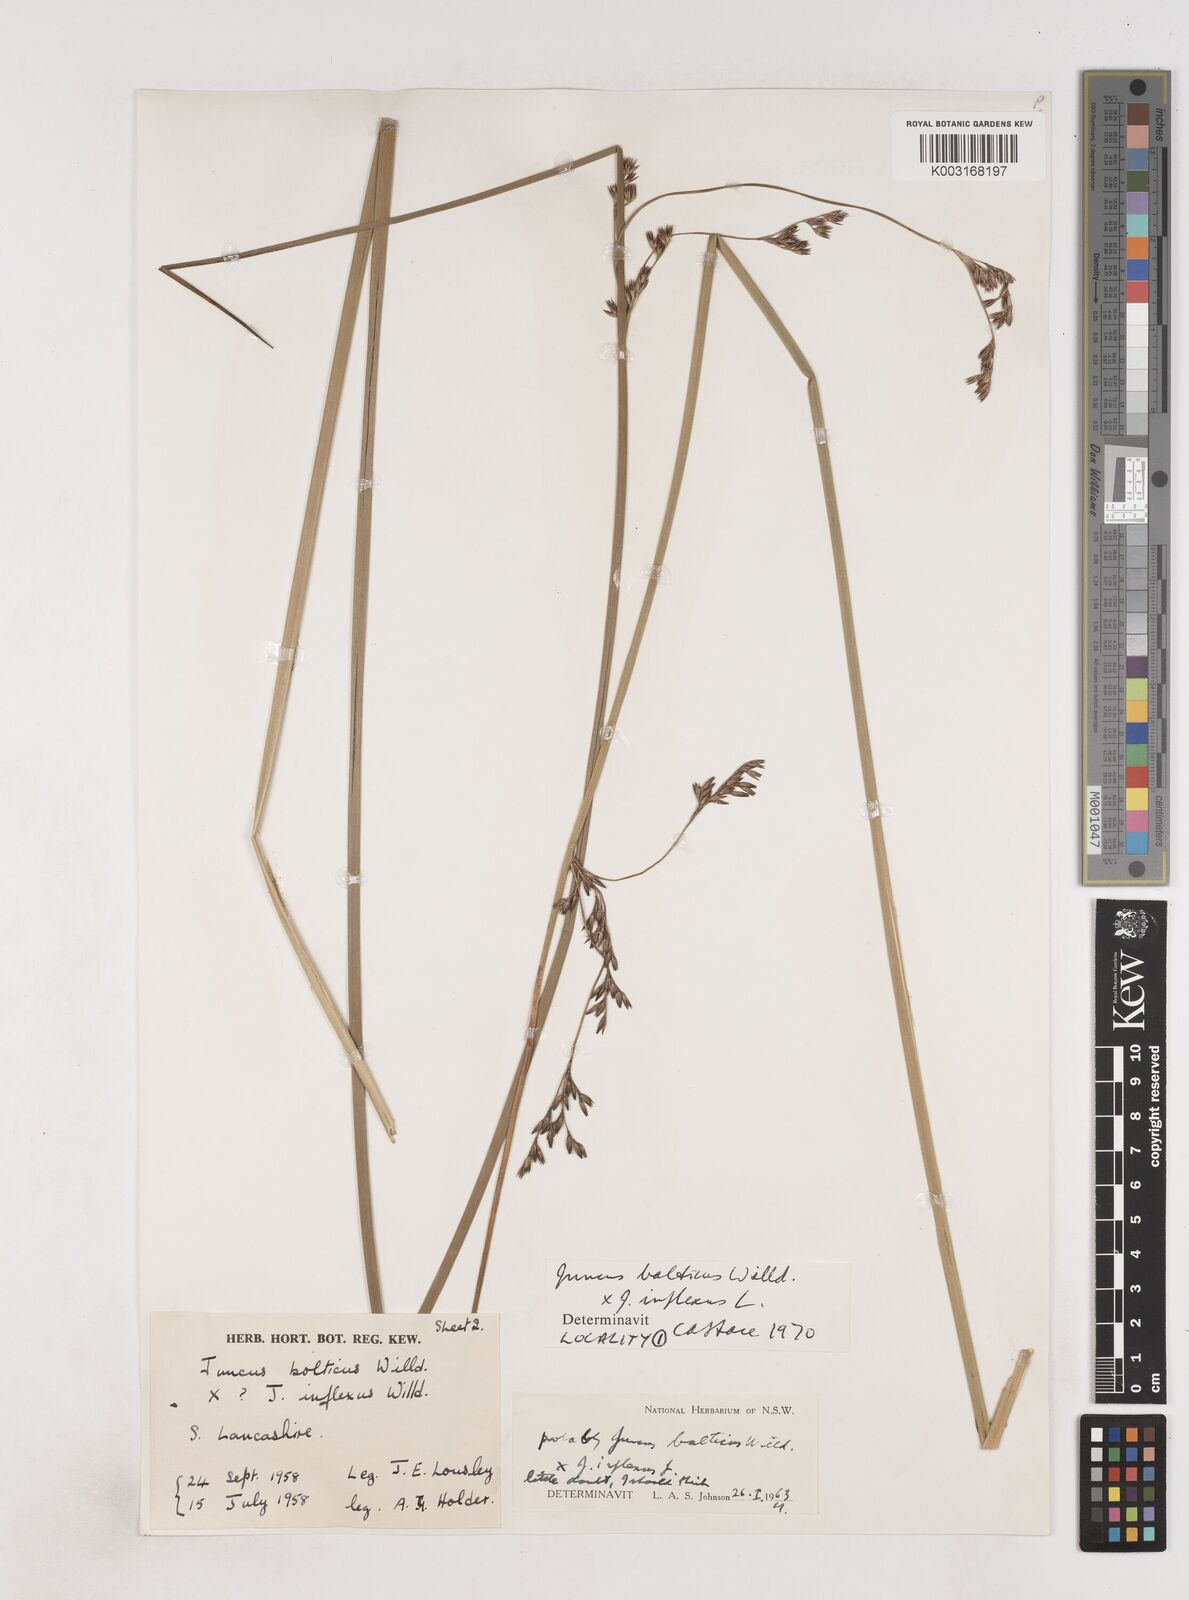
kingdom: Plantae
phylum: Tracheophyta
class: Liliopsida
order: Poales
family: Juncaceae
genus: Juncus
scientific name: Juncus balticus
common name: Baltic rush
